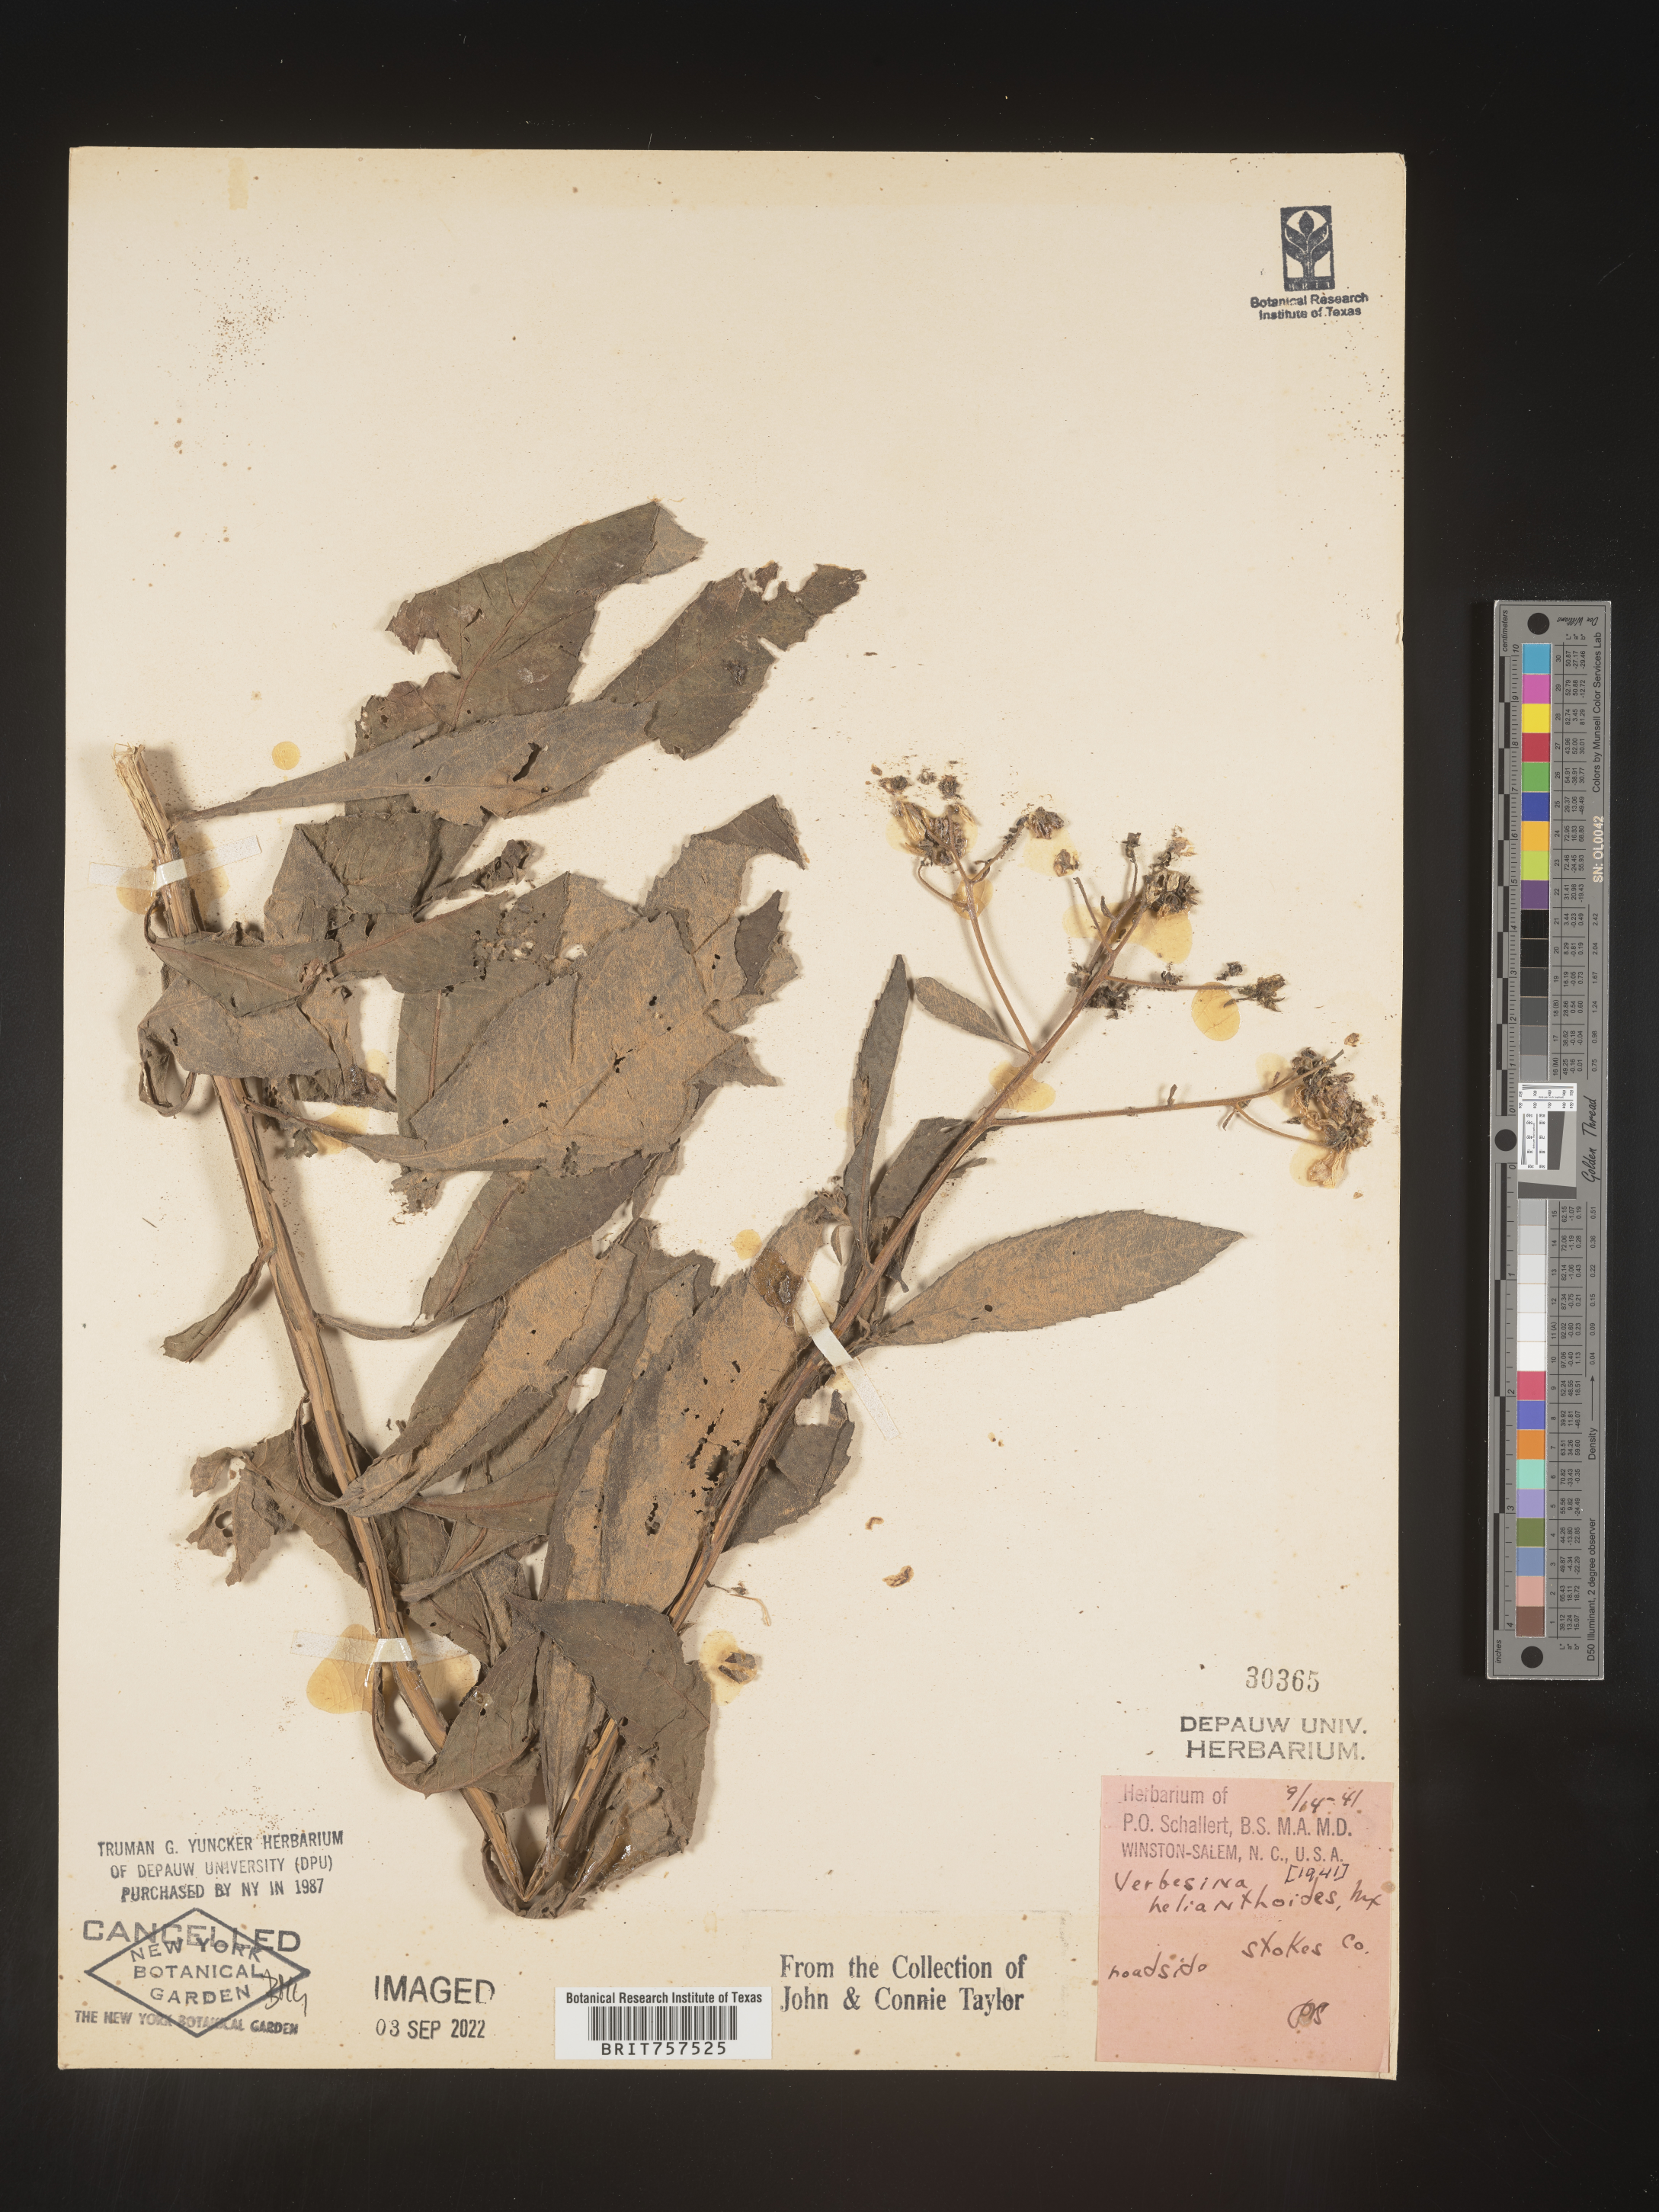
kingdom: Plantae
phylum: Tracheophyta
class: Magnoliopsida
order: Asterales
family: Asteraceae
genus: Verbesina
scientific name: Verbesina helianthoides
